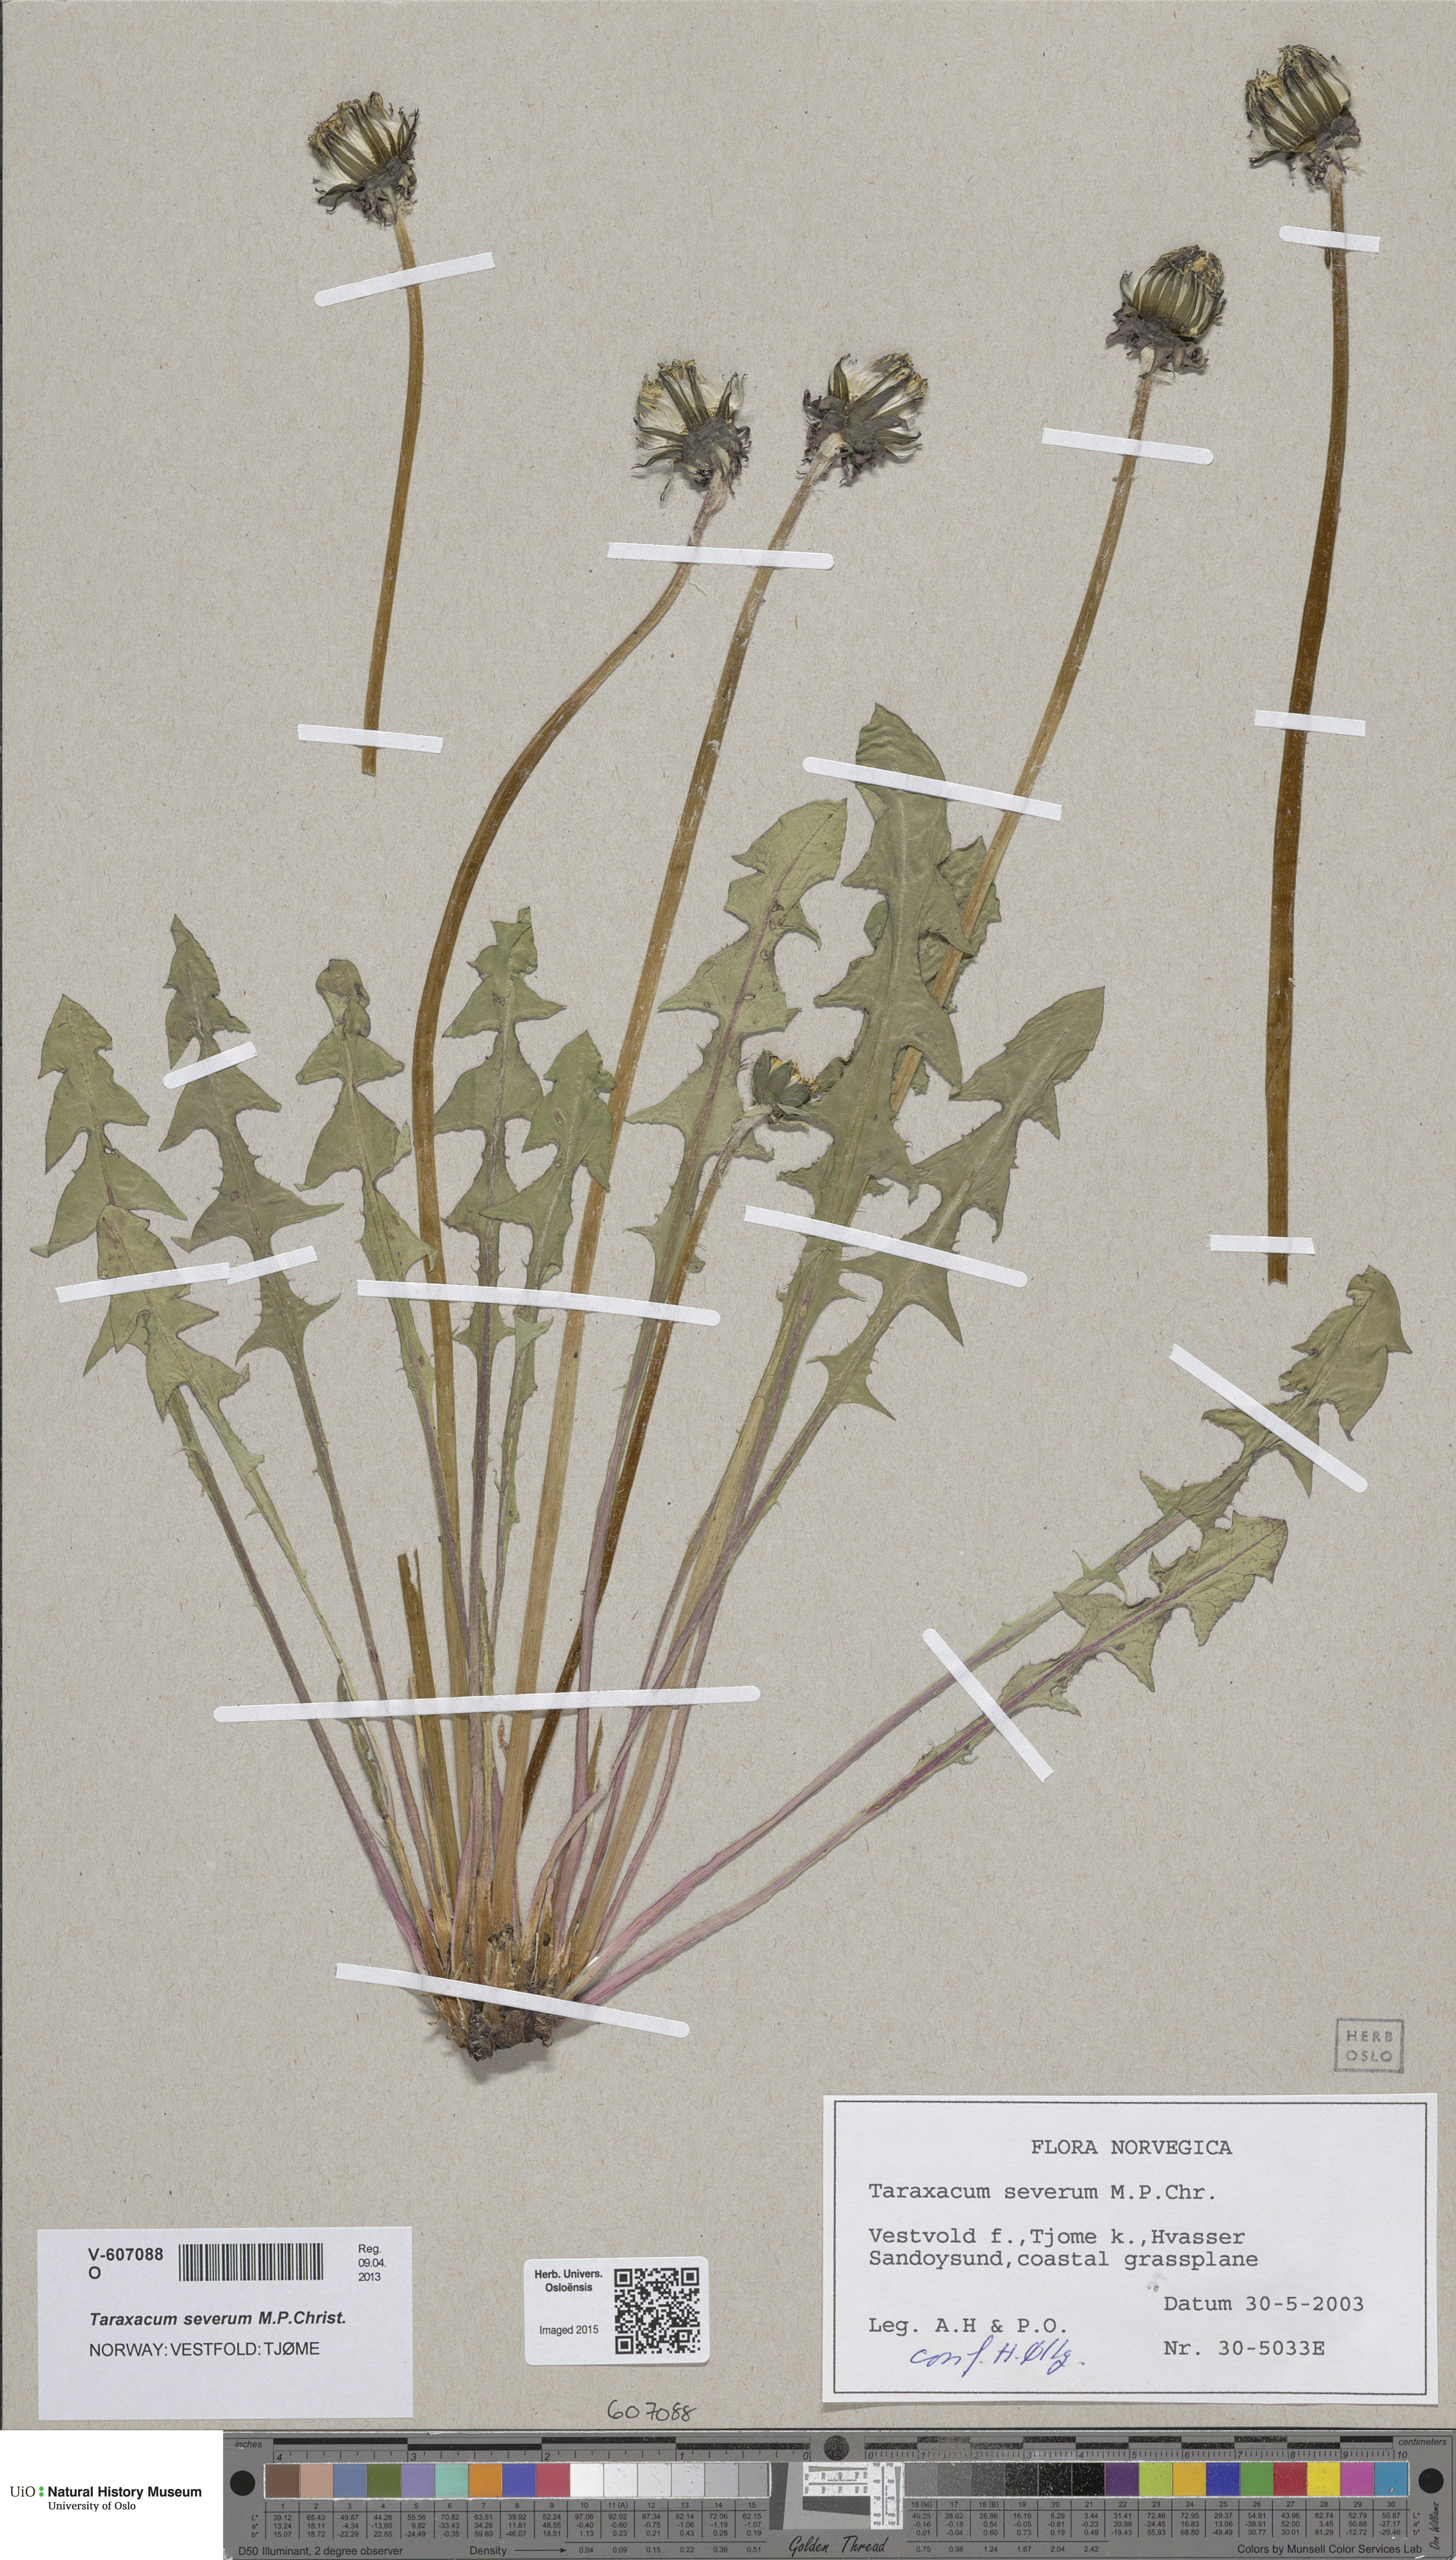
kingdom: Plantae
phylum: Tracheophyta
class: Magnoliopsida
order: Asterales
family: Asteraceae
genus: Taraxacum
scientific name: Taraxacum severum
